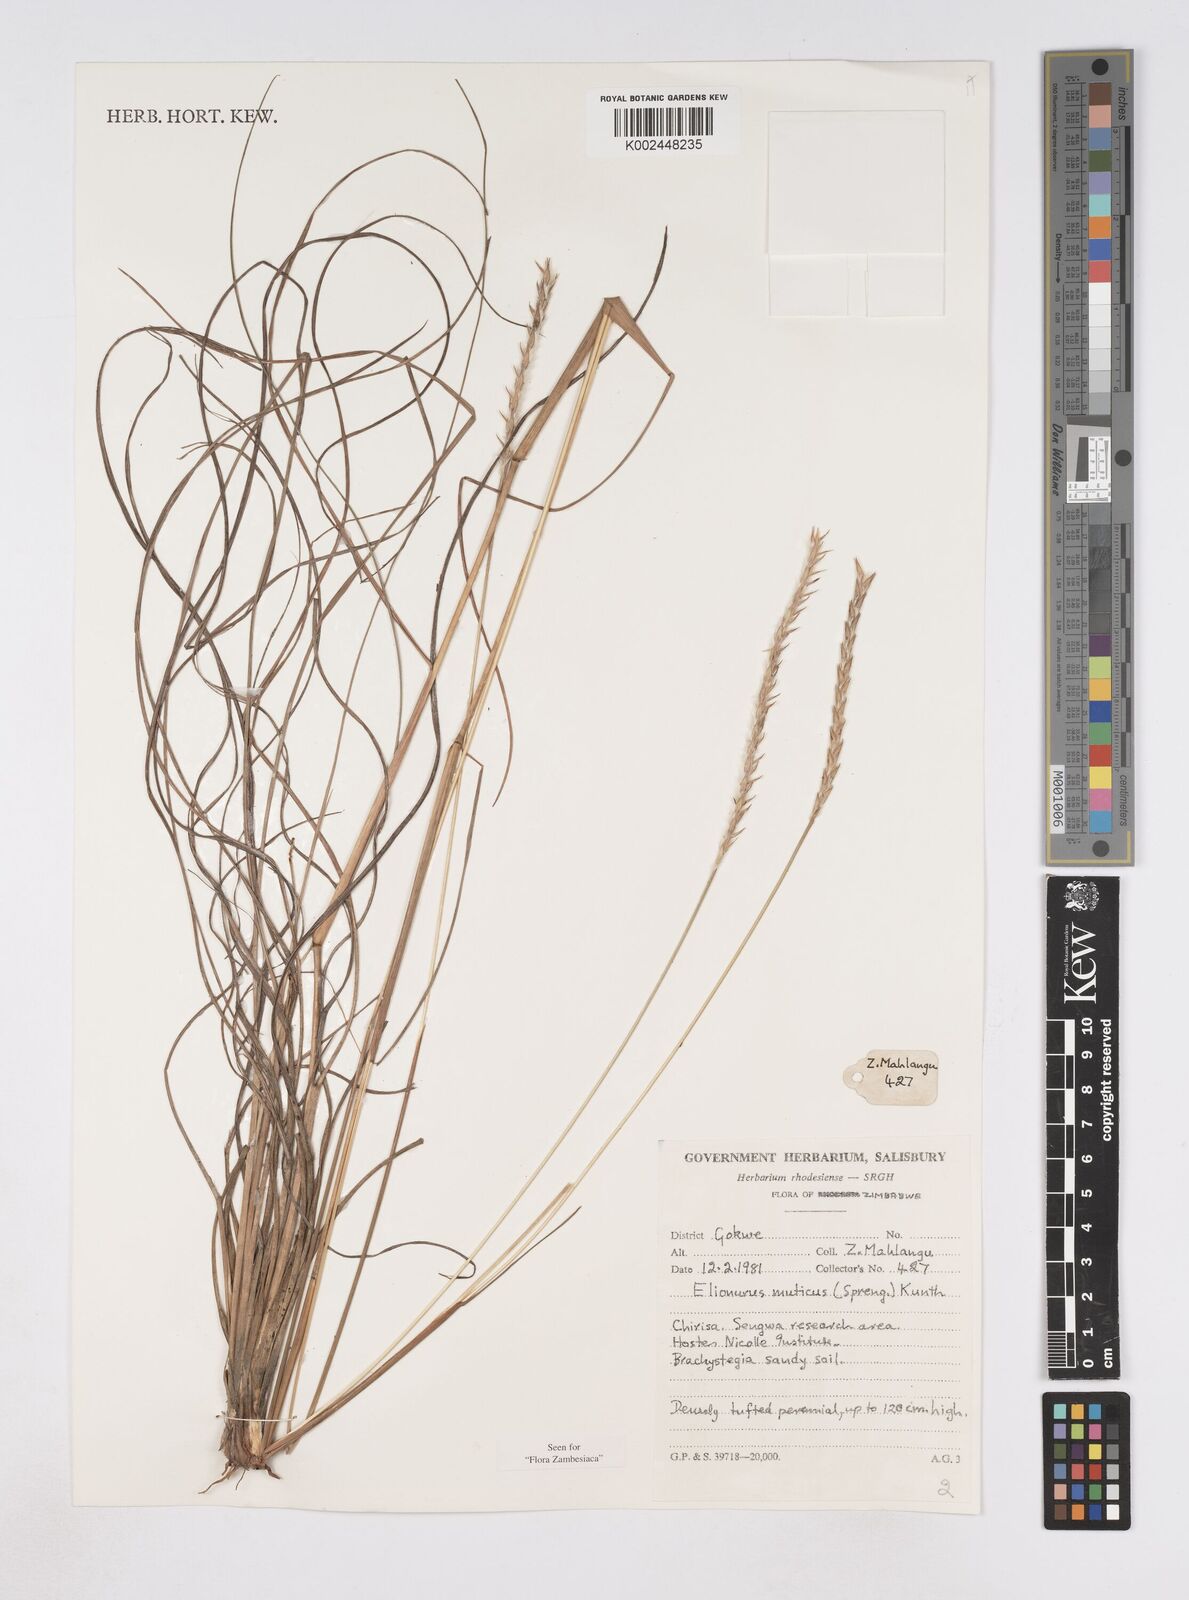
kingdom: Plantae
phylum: Tracheophyta
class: Liliopsida
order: Poales
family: Poaceae
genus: Elionurus
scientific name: Elionurus muticus
